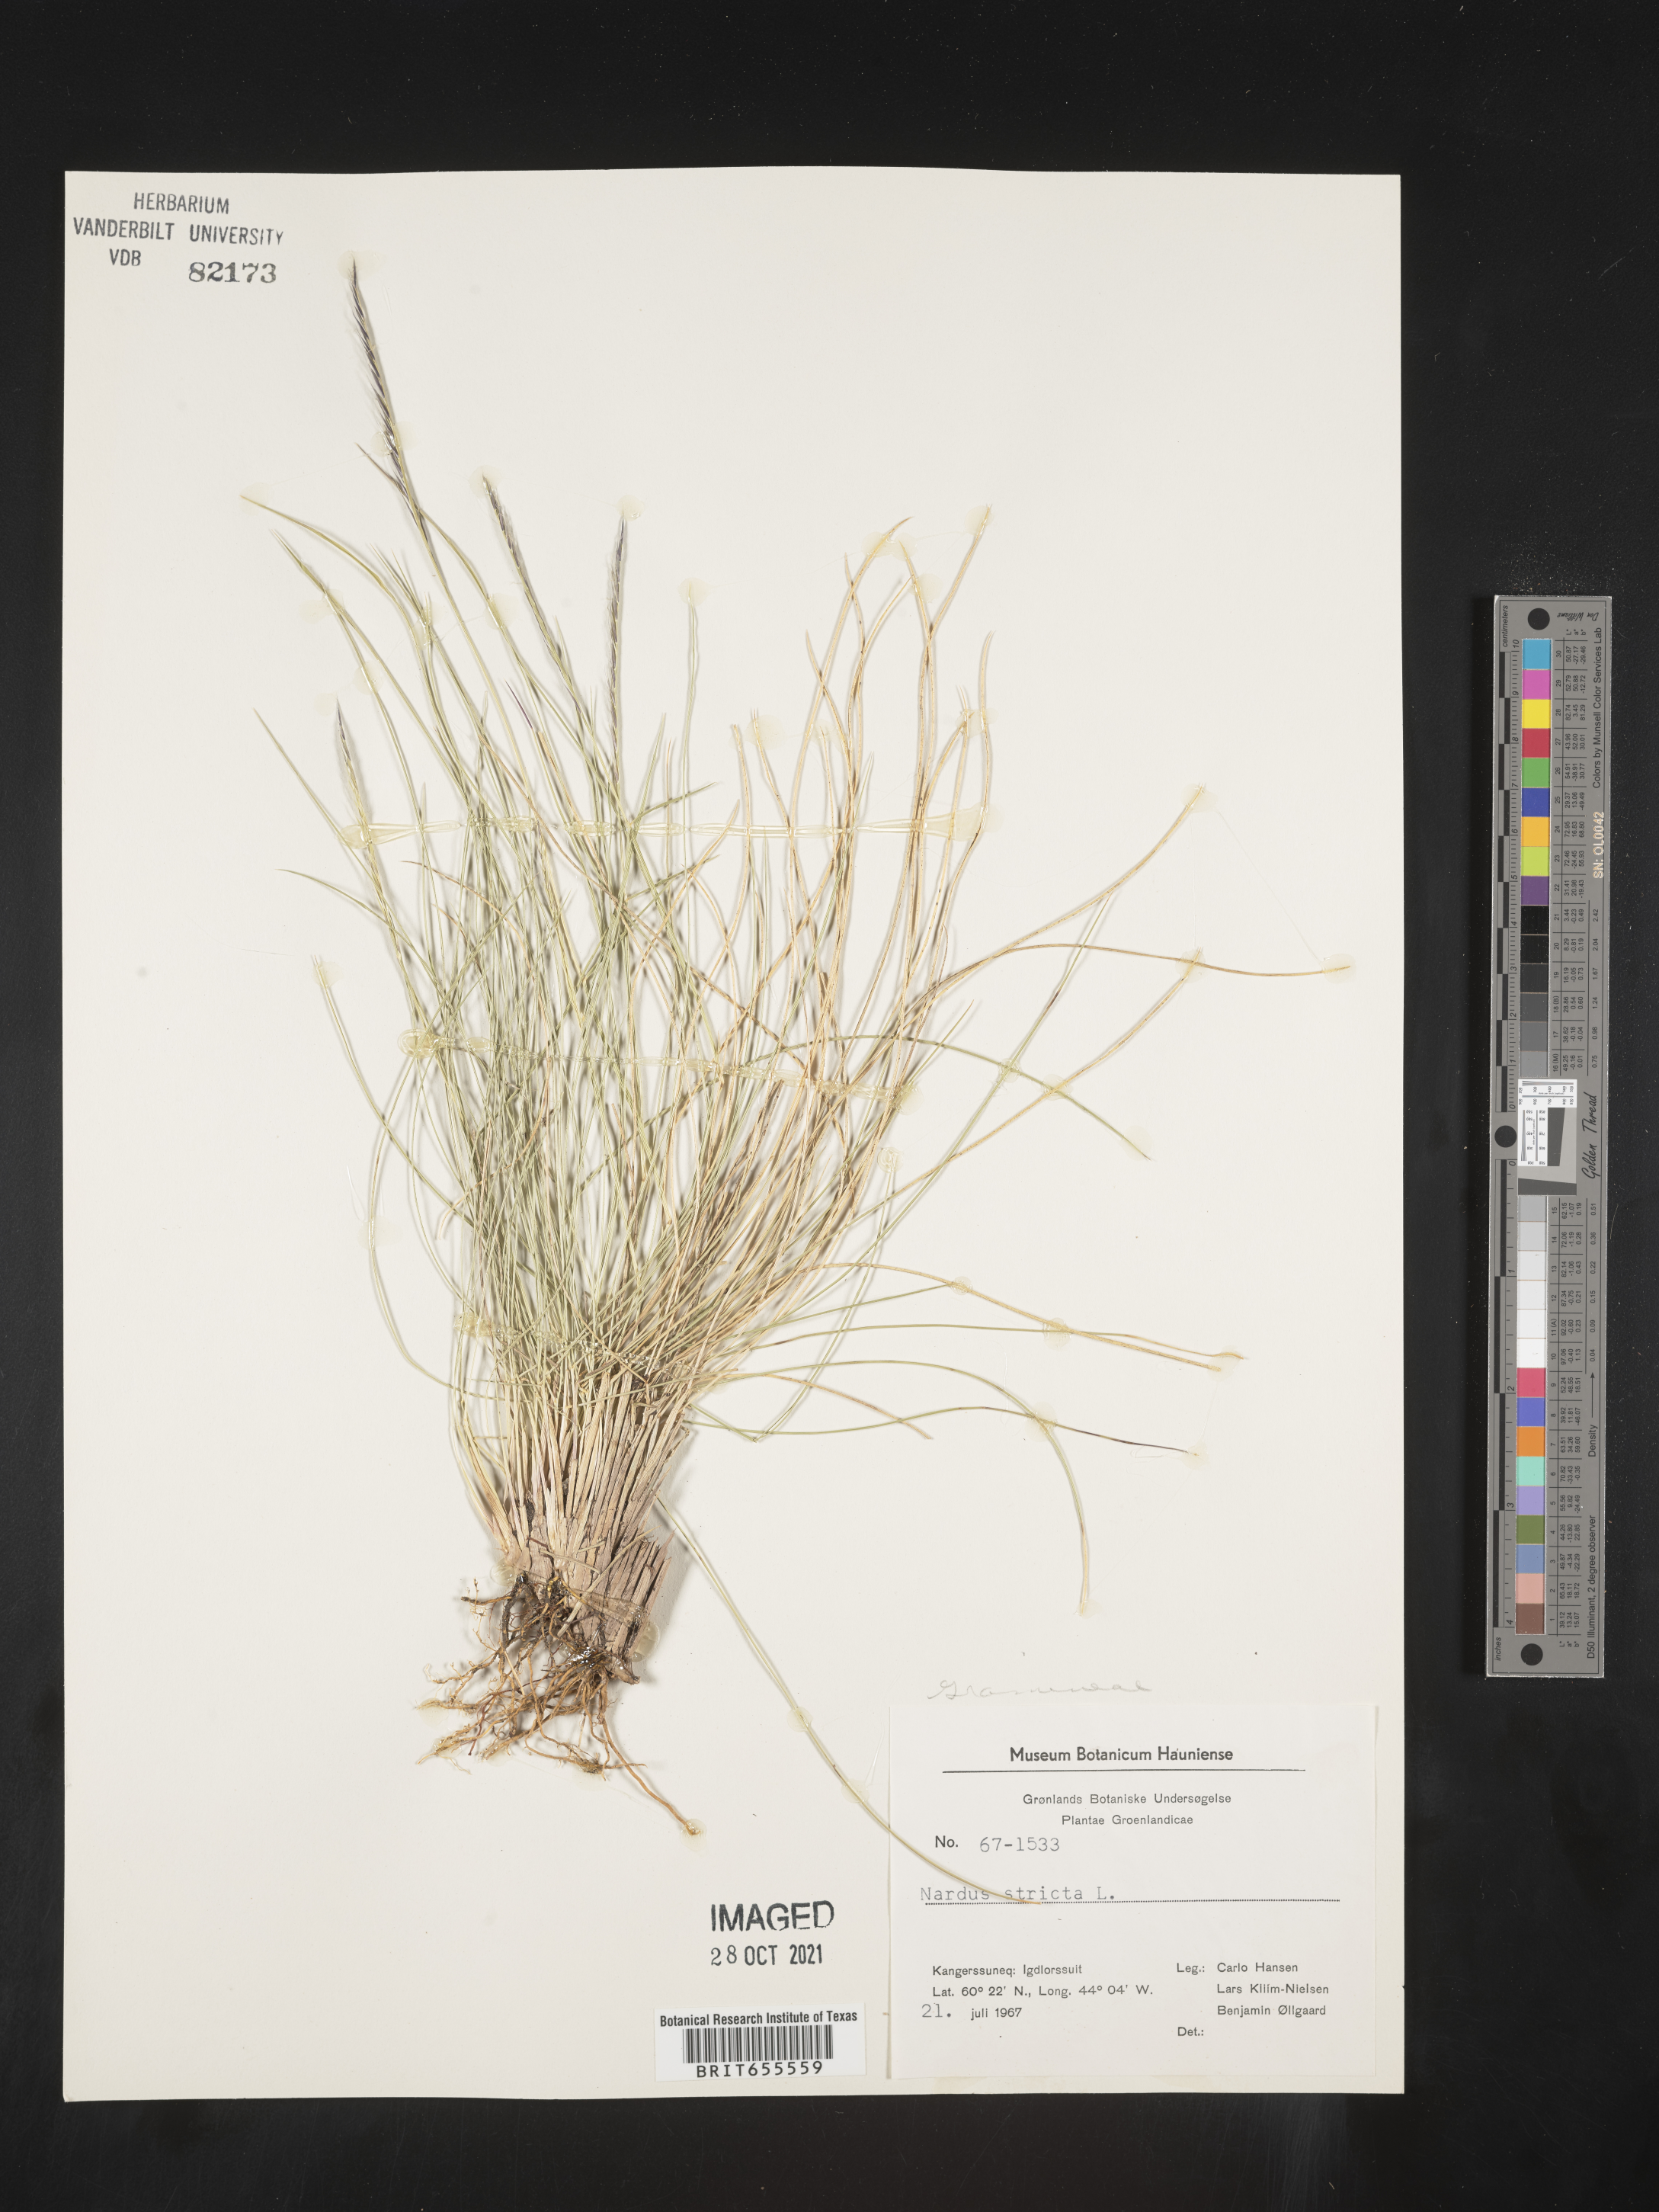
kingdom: Plantae
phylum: Tracheophyta
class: Liliopsida
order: Poales
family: Poaceae
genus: Nardus
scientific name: Nardus
